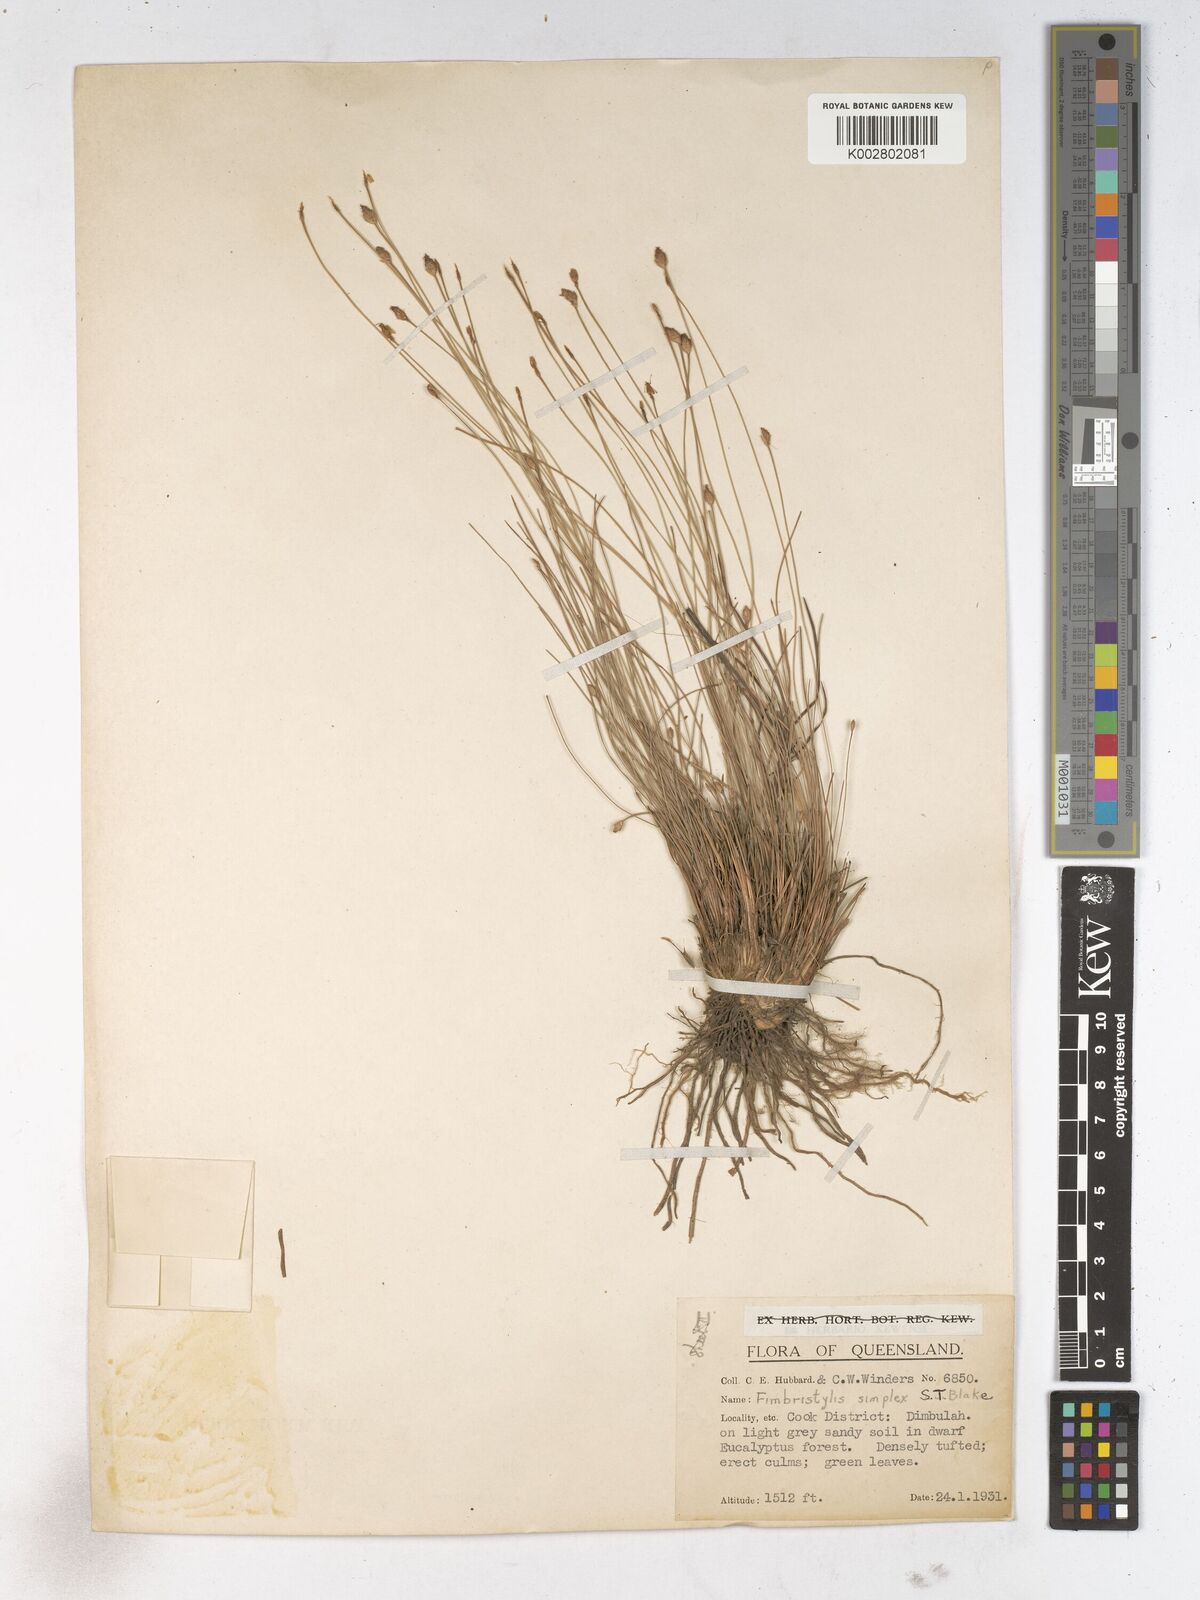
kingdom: Plantae
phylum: Tracheophyta
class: Liliopsida
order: Poales
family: Cyperaceae
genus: Fimbristylis
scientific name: Fimbristylis simplex
